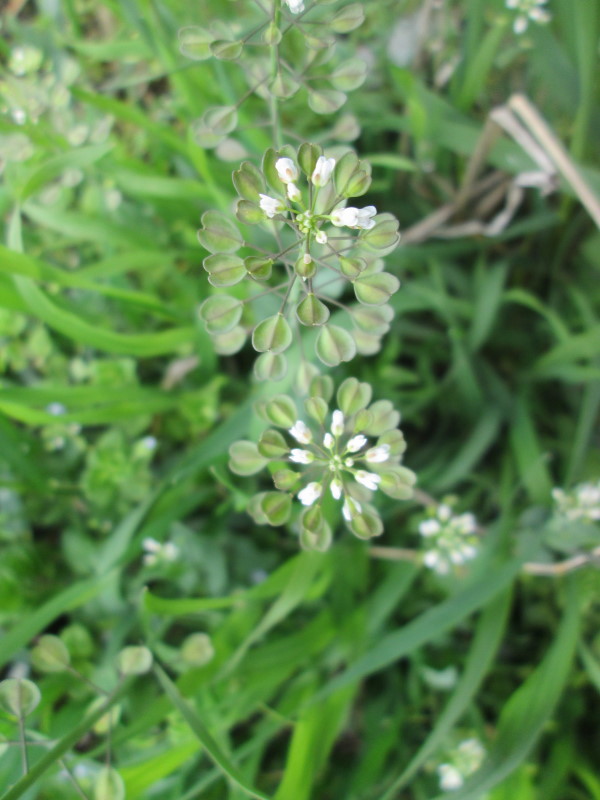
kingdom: Plantae
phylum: Tracheophyta
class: Magnoliopsida
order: Brassicales
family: Brassicaceae
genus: Capsella
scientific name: Capsella bursa-pastoris
